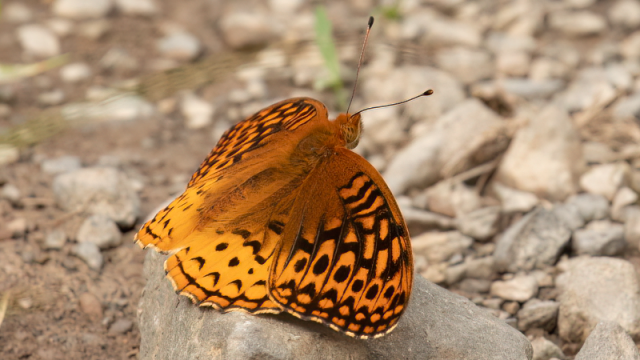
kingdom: Animalia
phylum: Arthropoda
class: Insecta
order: Lepidoptera
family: Nymphalidae
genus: Speyeria
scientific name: Speyeria cybele
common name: Great Spangled Fritillary
